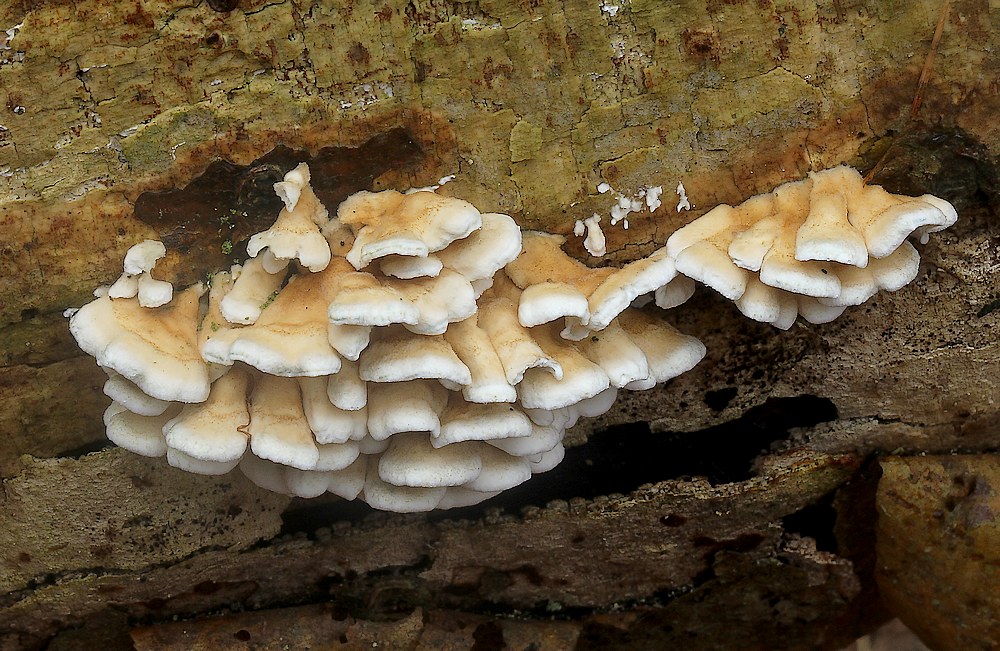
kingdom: Fungi
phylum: Basidiomycota
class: Agaricomycetes
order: Amylocorticiales
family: Amylocorticiaceae
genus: Plicaturopsis
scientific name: Plicaturopsis crispa
